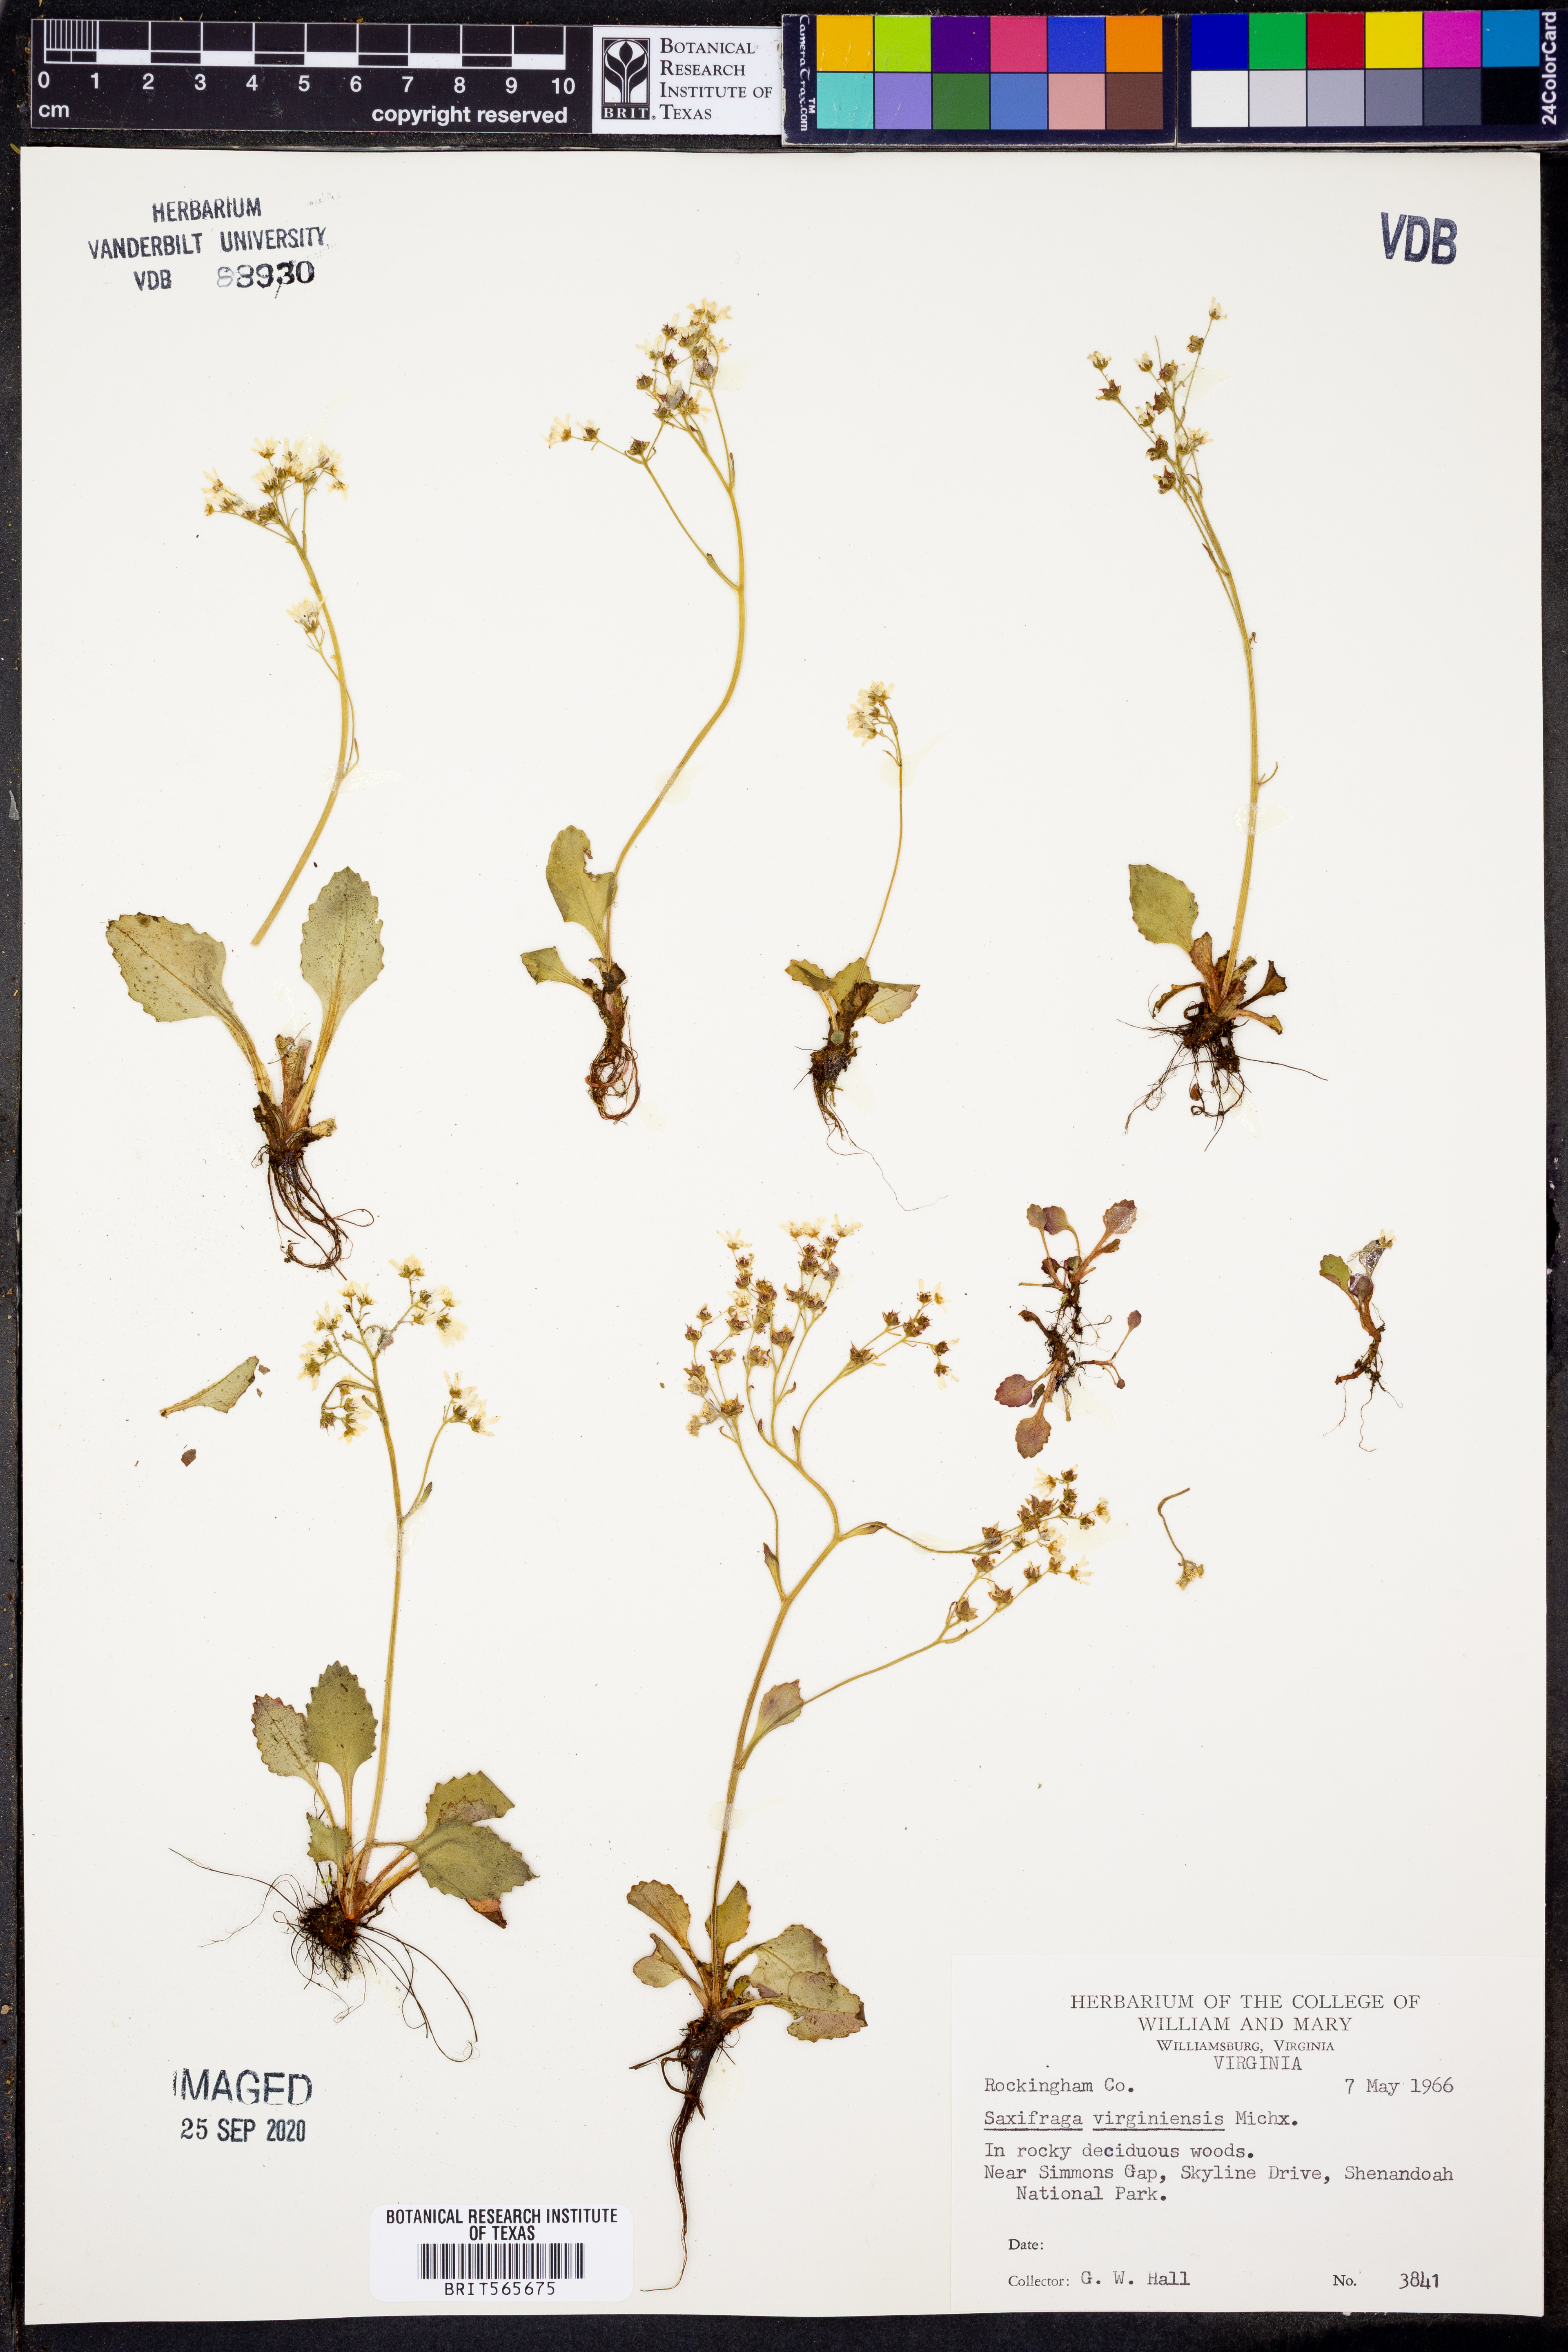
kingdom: Plantae
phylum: Tracheophyta
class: Magnoliopsida
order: Saxifragales
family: Saxifragaceae
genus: Micranthes
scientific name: Micranthes virginiensis
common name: Early saxifrage
